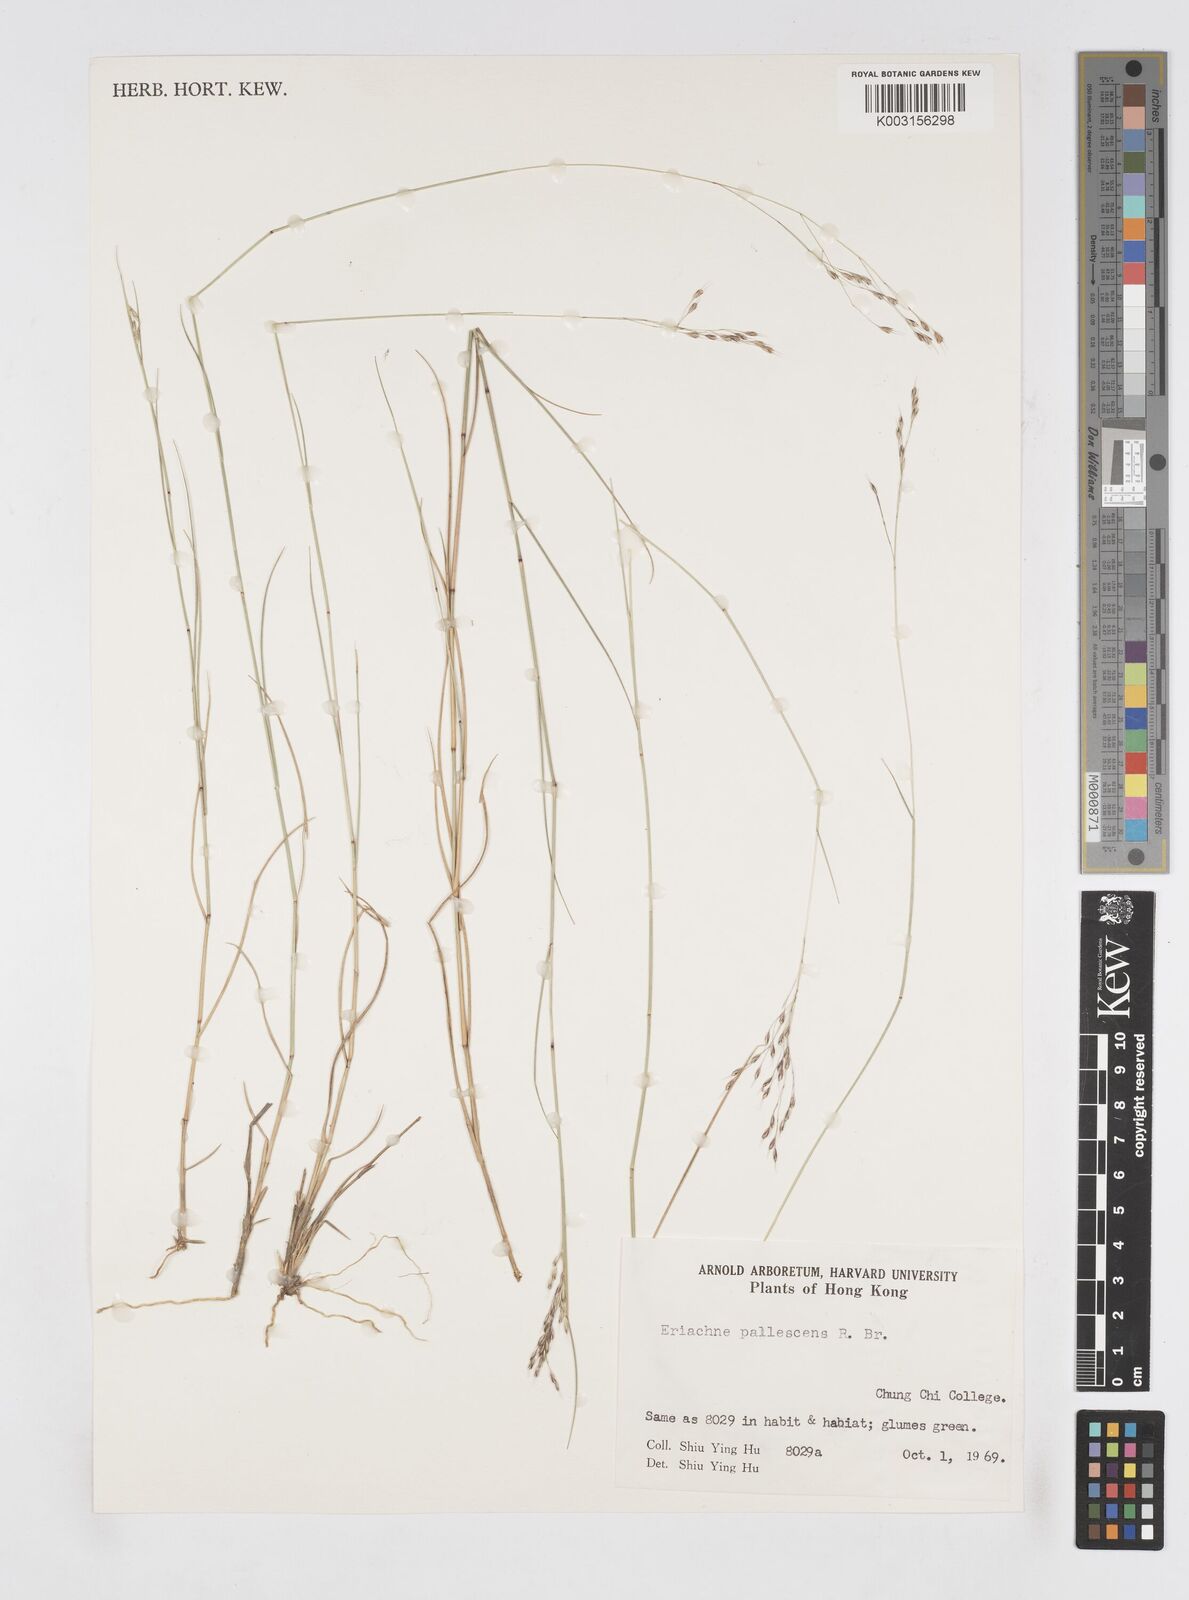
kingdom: Plantae
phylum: Tracheophyta
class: Liliopsida
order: Poales
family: Poaceae
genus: Eriachne
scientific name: Eriachne pallescens
